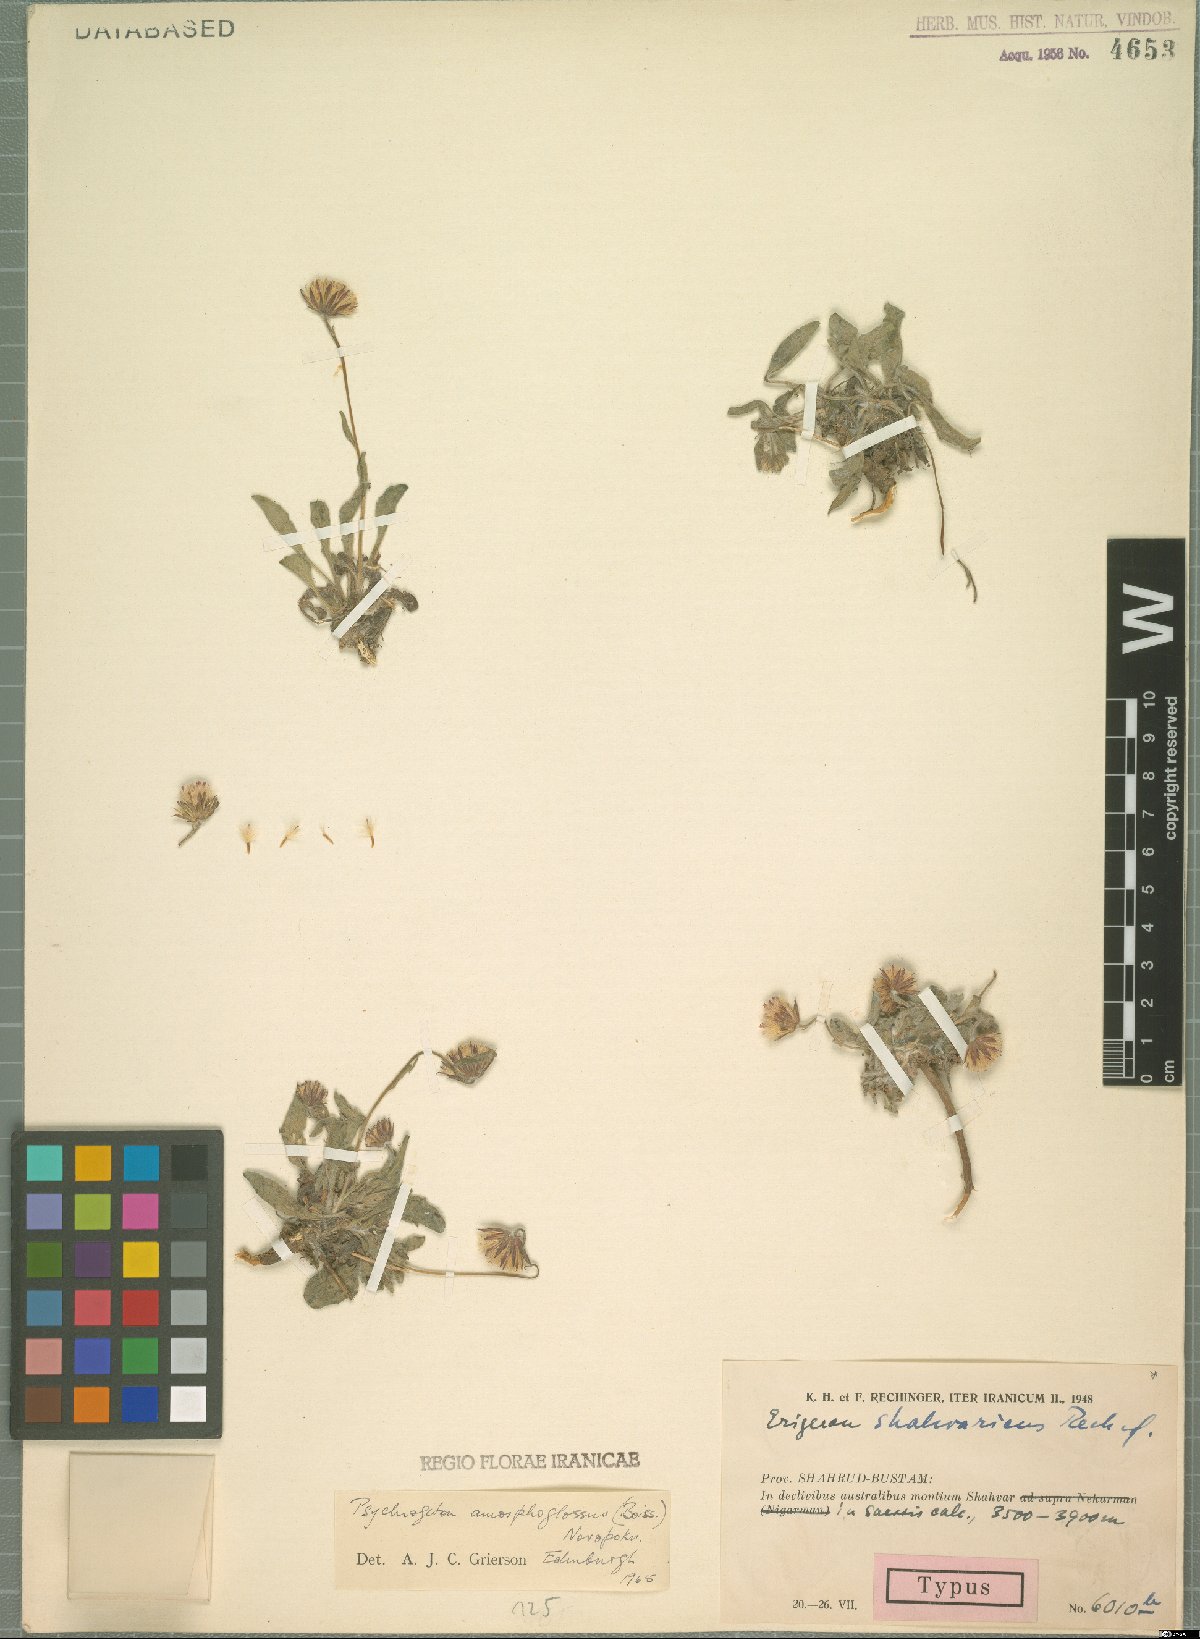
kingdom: Plantae
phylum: Tracheophyta
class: Magnoliopsida
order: Asterales
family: Asteraceae
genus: Psychrogeton
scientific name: Psychrogeton amorphoglossus
